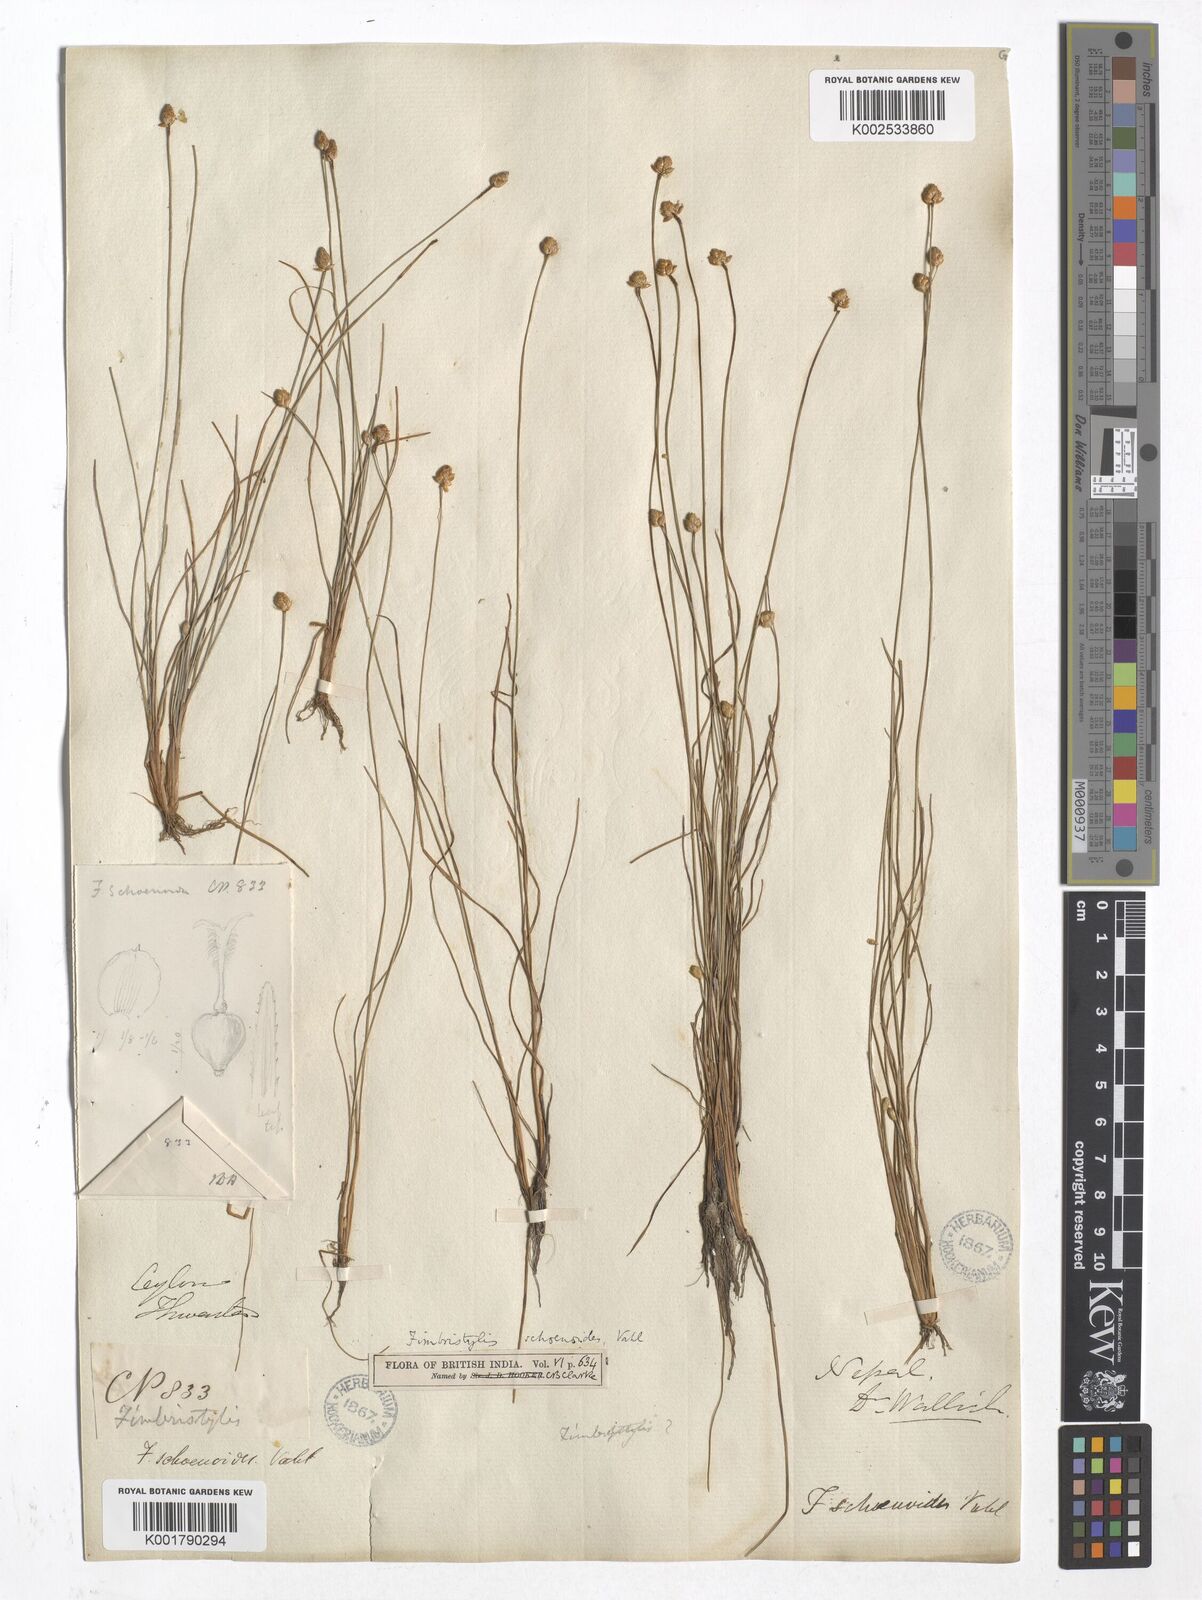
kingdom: Plantae
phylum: Tracheophyta
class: Liliopsida
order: Poales
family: Cyperaceae
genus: Fimbristylis
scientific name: Fimbristylis schoenoides
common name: Ditch fimbry
